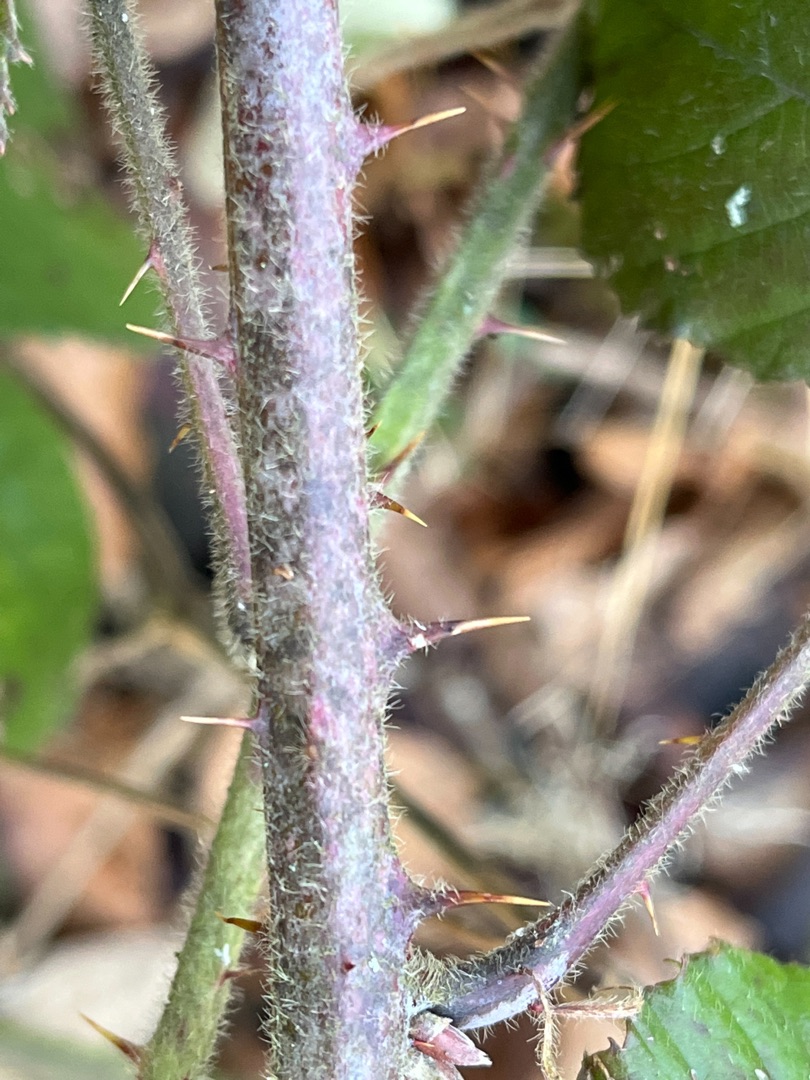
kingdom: Plantae
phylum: Tracheophyta
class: Magnoliopsida
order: Rosales
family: Rosaceae
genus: Rubus
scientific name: Rubus vestitus
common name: Rundbladet brombær
